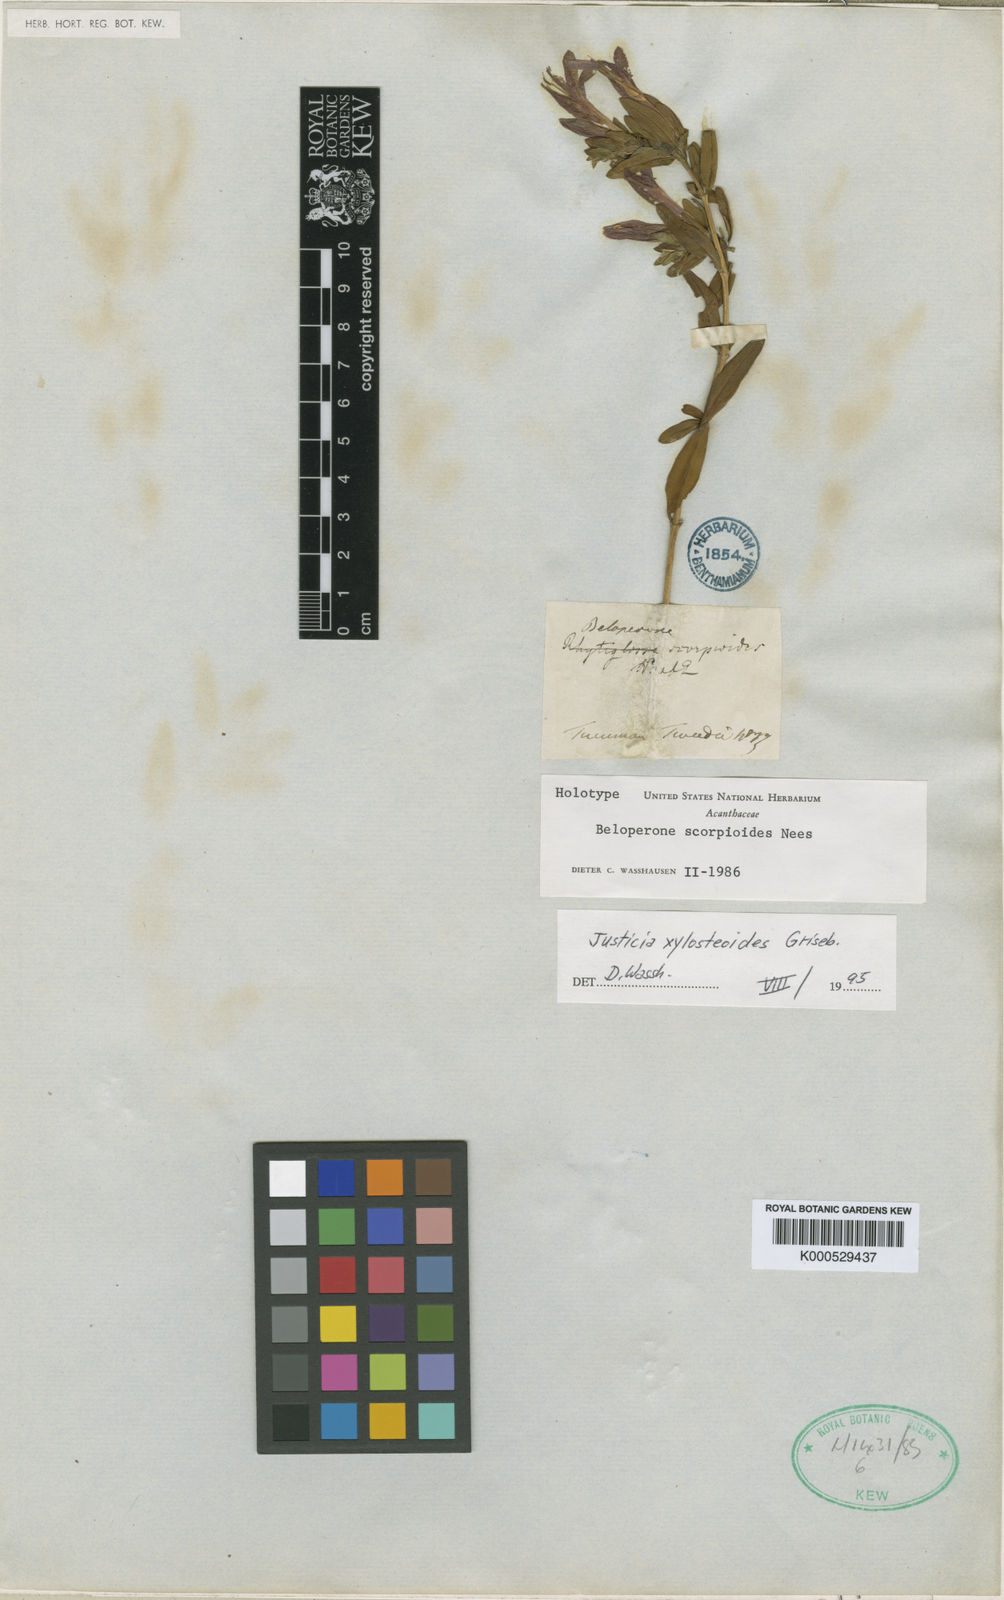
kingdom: Plantae
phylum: Tracheophyta
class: Magnoliopsida
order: Lamiales
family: Acanthaceae
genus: Justicia
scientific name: Justicia xylosteoides
